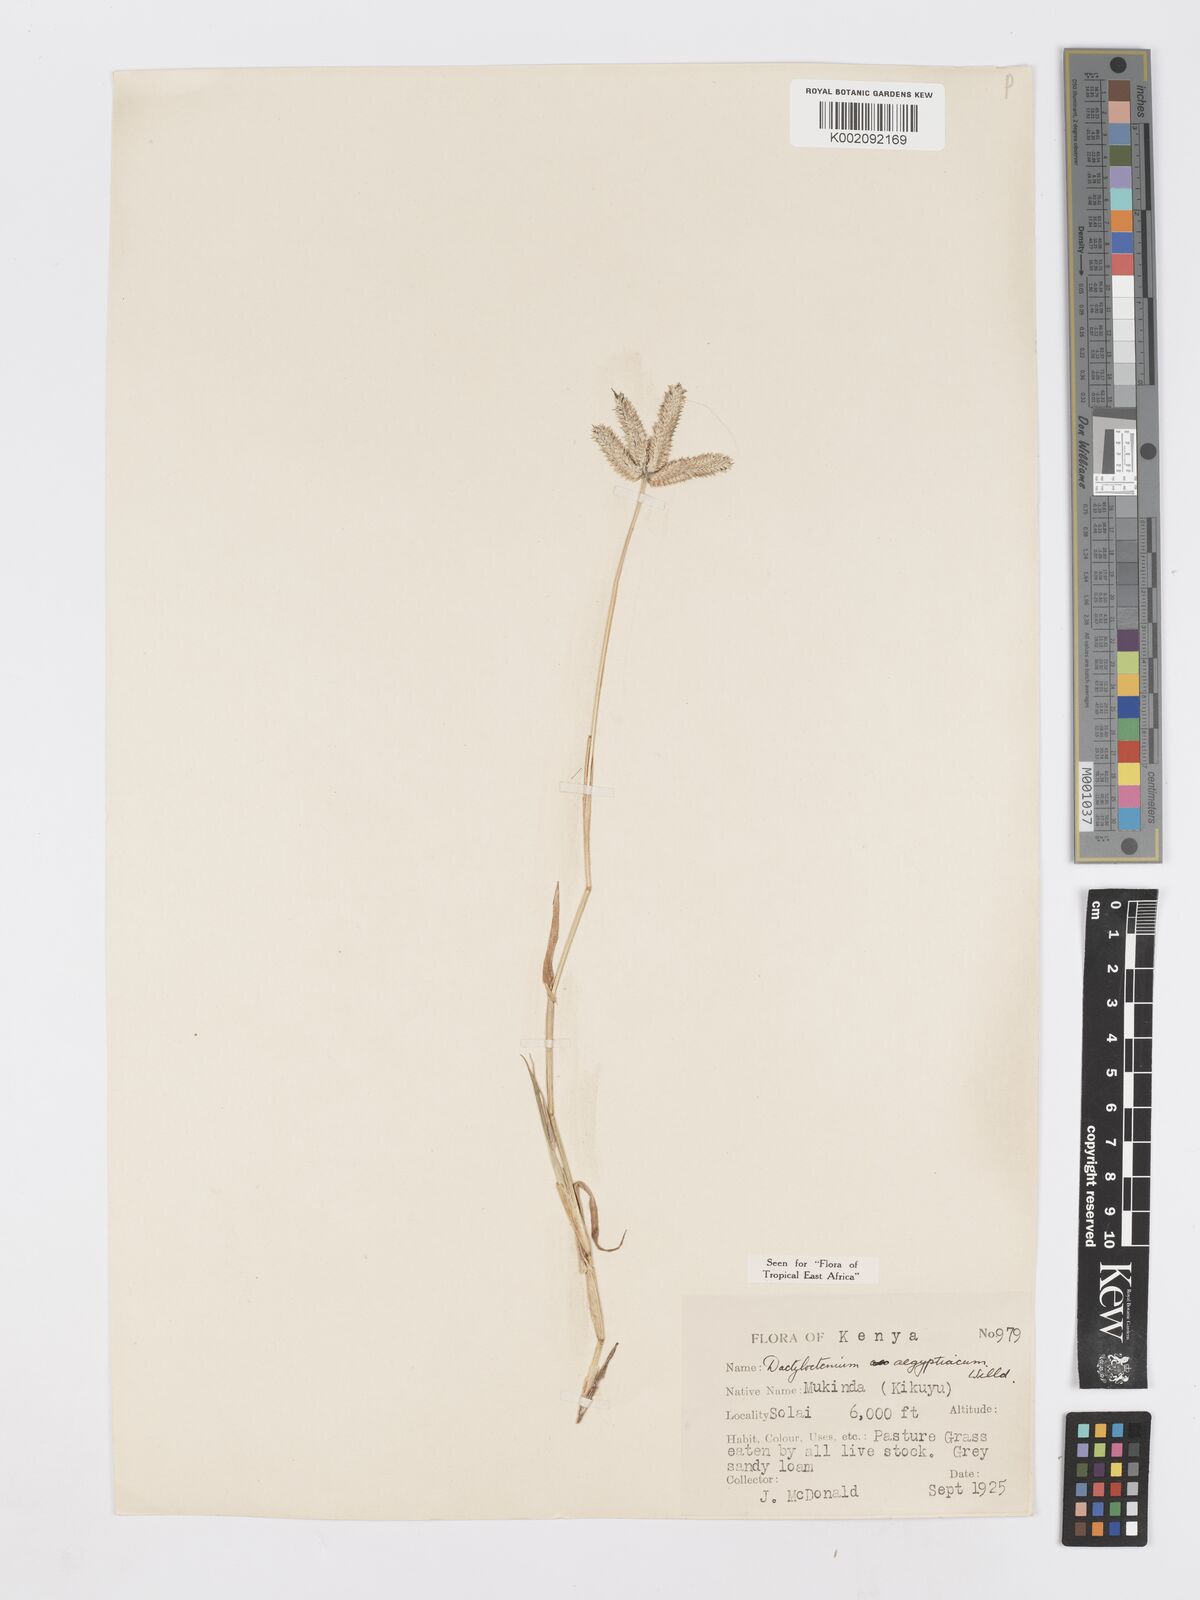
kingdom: Plantae
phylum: Tracheophyta
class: Liliopsida
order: Poales
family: Poaceae
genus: Dactyloctenium
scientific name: Dactyloctenium aegyptium
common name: Egyptian grass
